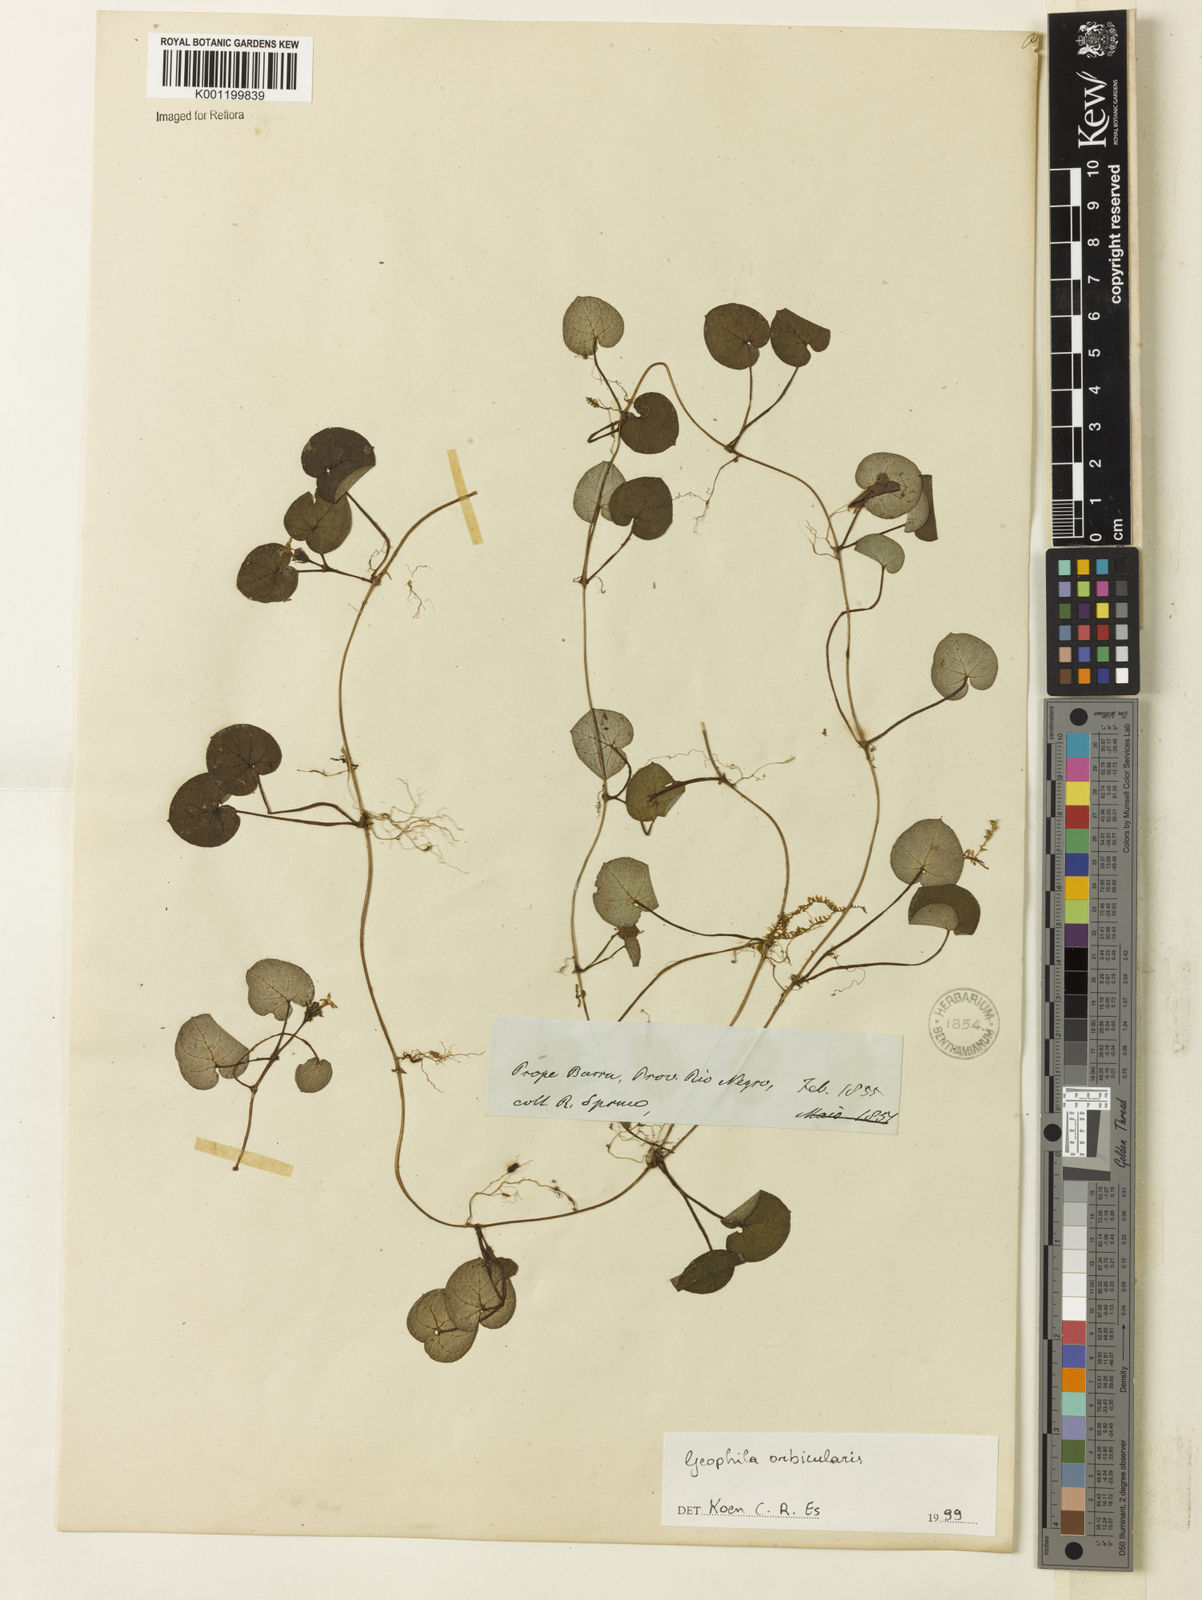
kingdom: Plantae
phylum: Tracheophyta
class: Magnoliopsida
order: Gentianales
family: Rubiaceae
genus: Geophila
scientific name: Geophila herbacea
